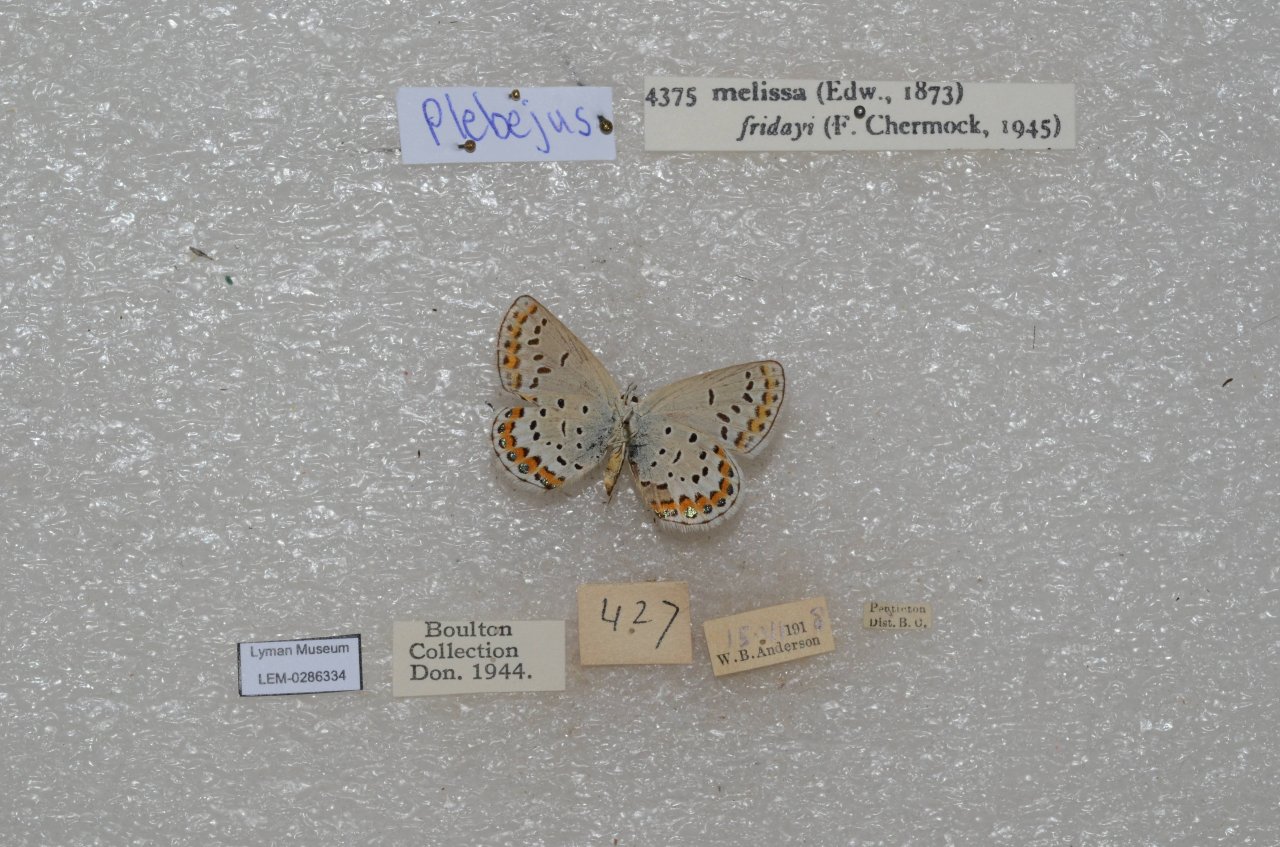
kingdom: Animalia
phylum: Arthropoda
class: Insecta
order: Lepidoptera
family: Nymphalidae
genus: Oeneis
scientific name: Oeneis melissa
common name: Melissa Arctic
